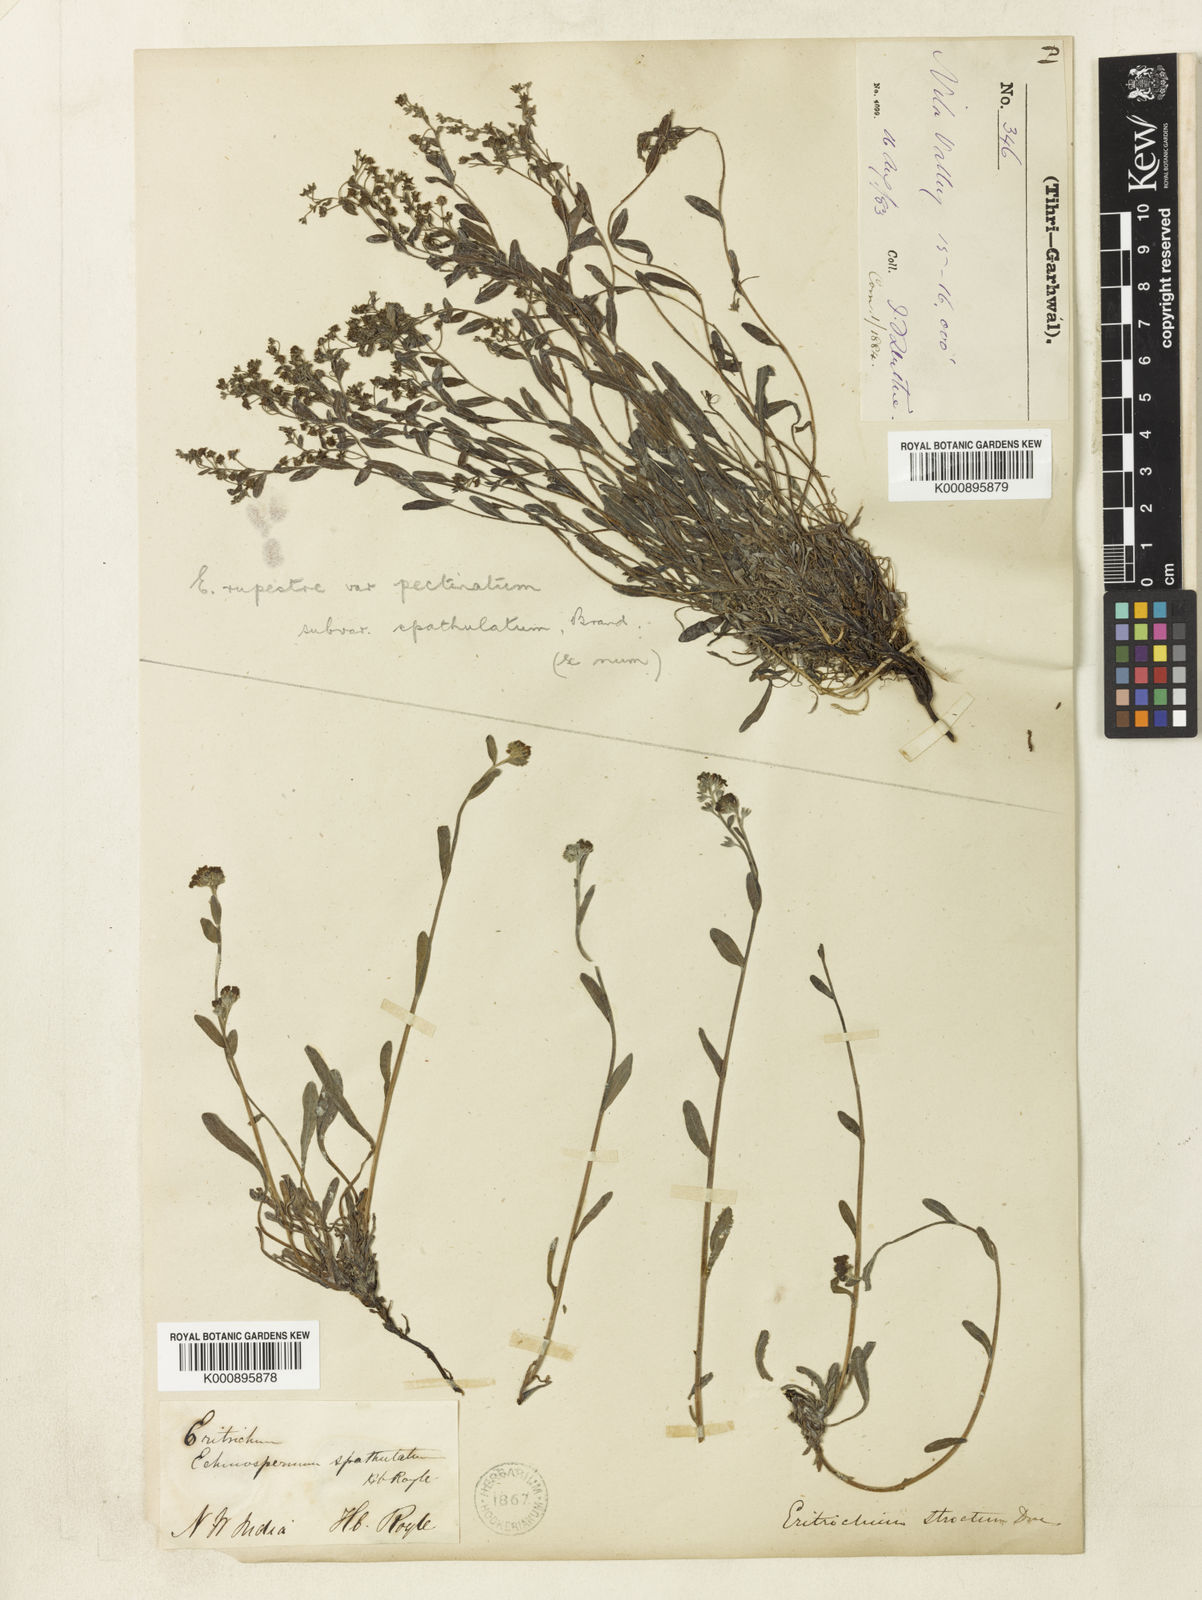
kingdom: Plantae
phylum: Tracheophyta
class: Magnoliopsida
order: Boraginales
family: Boraginaceae
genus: Eritrichium
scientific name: Eritrichium spathulatum
